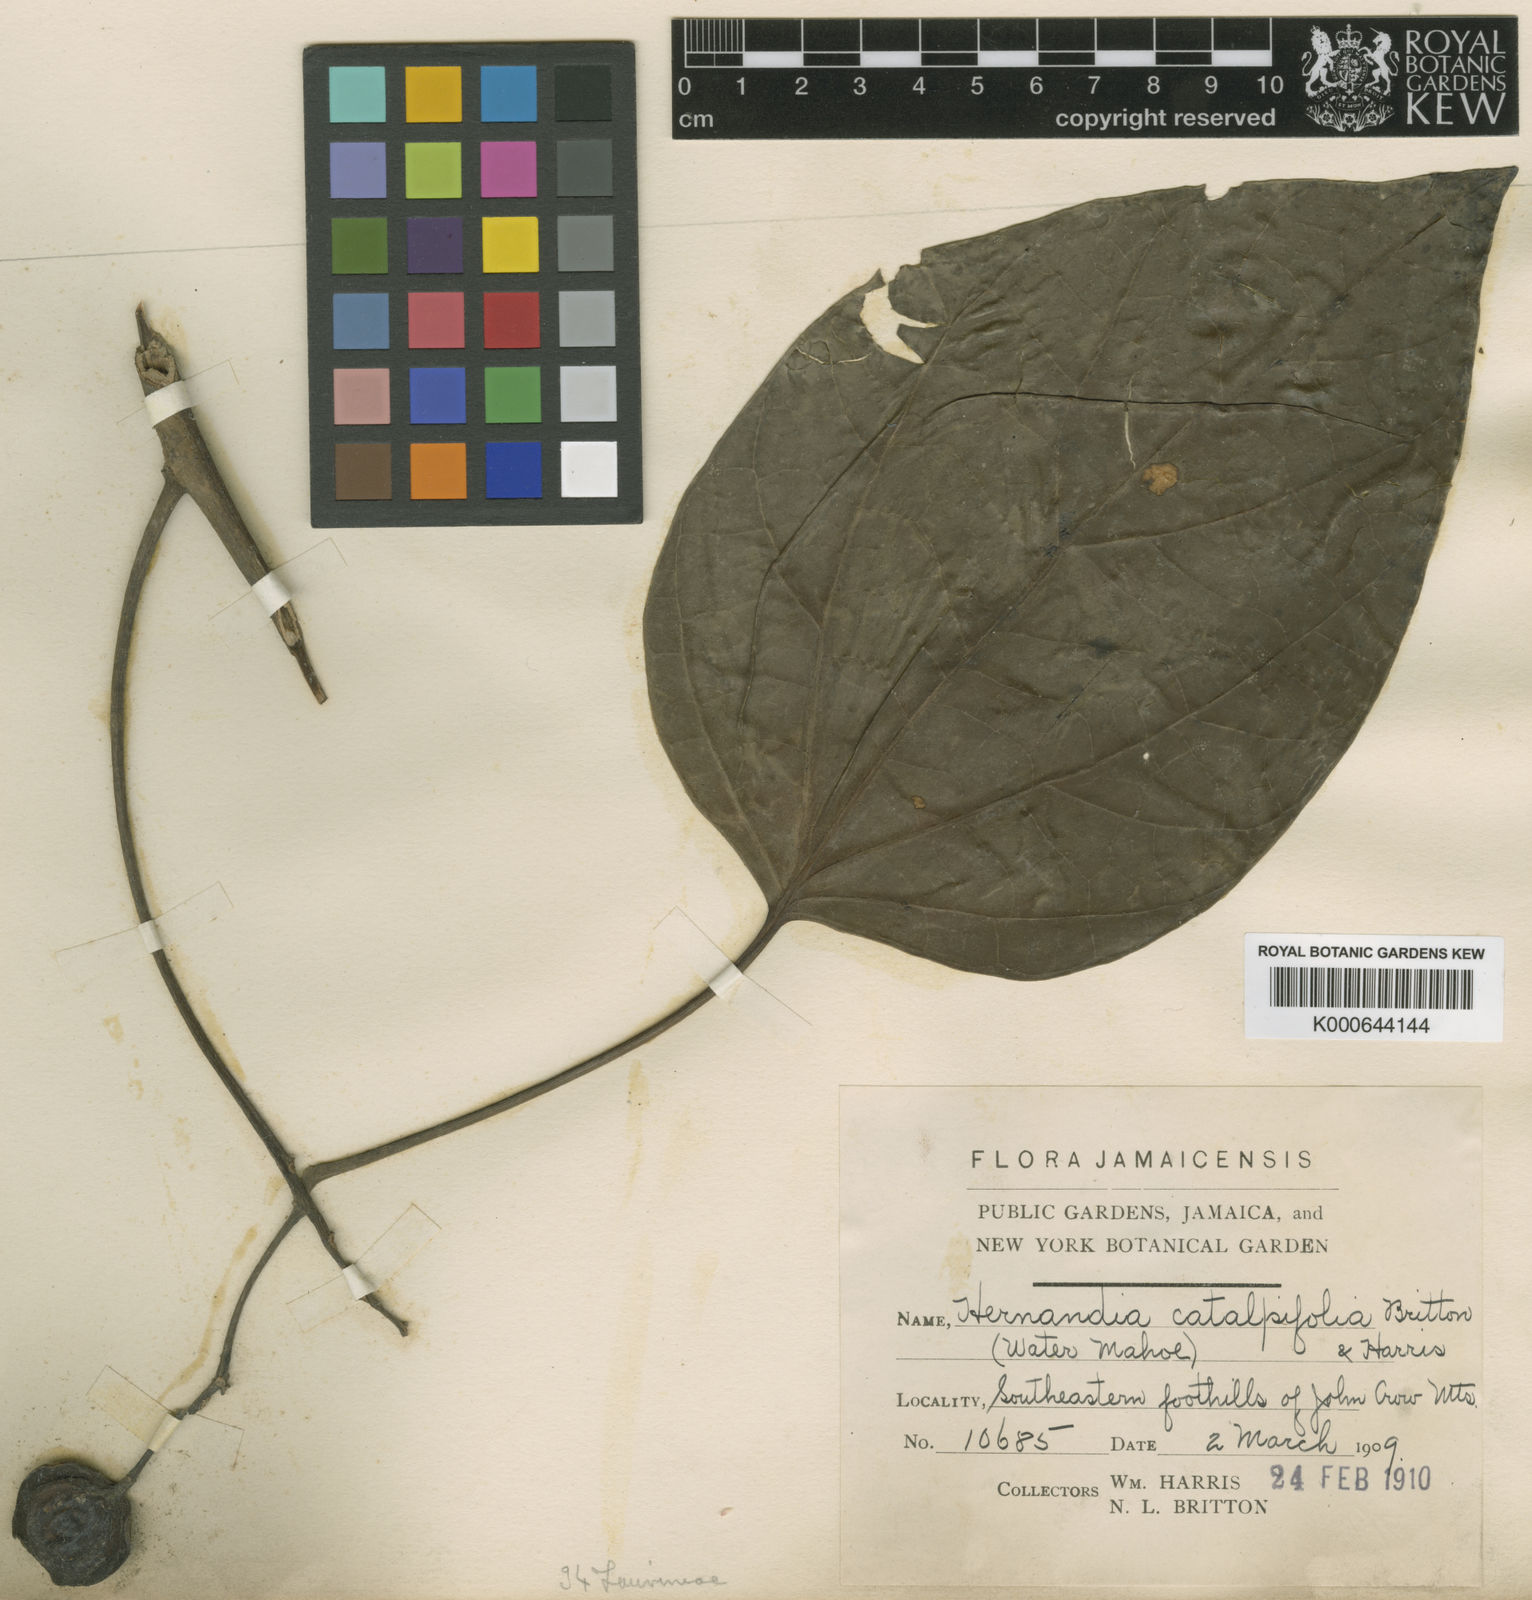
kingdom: Plantae
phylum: Tracheophyta
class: Magnoliopsida
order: Laurales
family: Hernandiaceae
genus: Hernandia
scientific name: Hernandia catalpifolia
